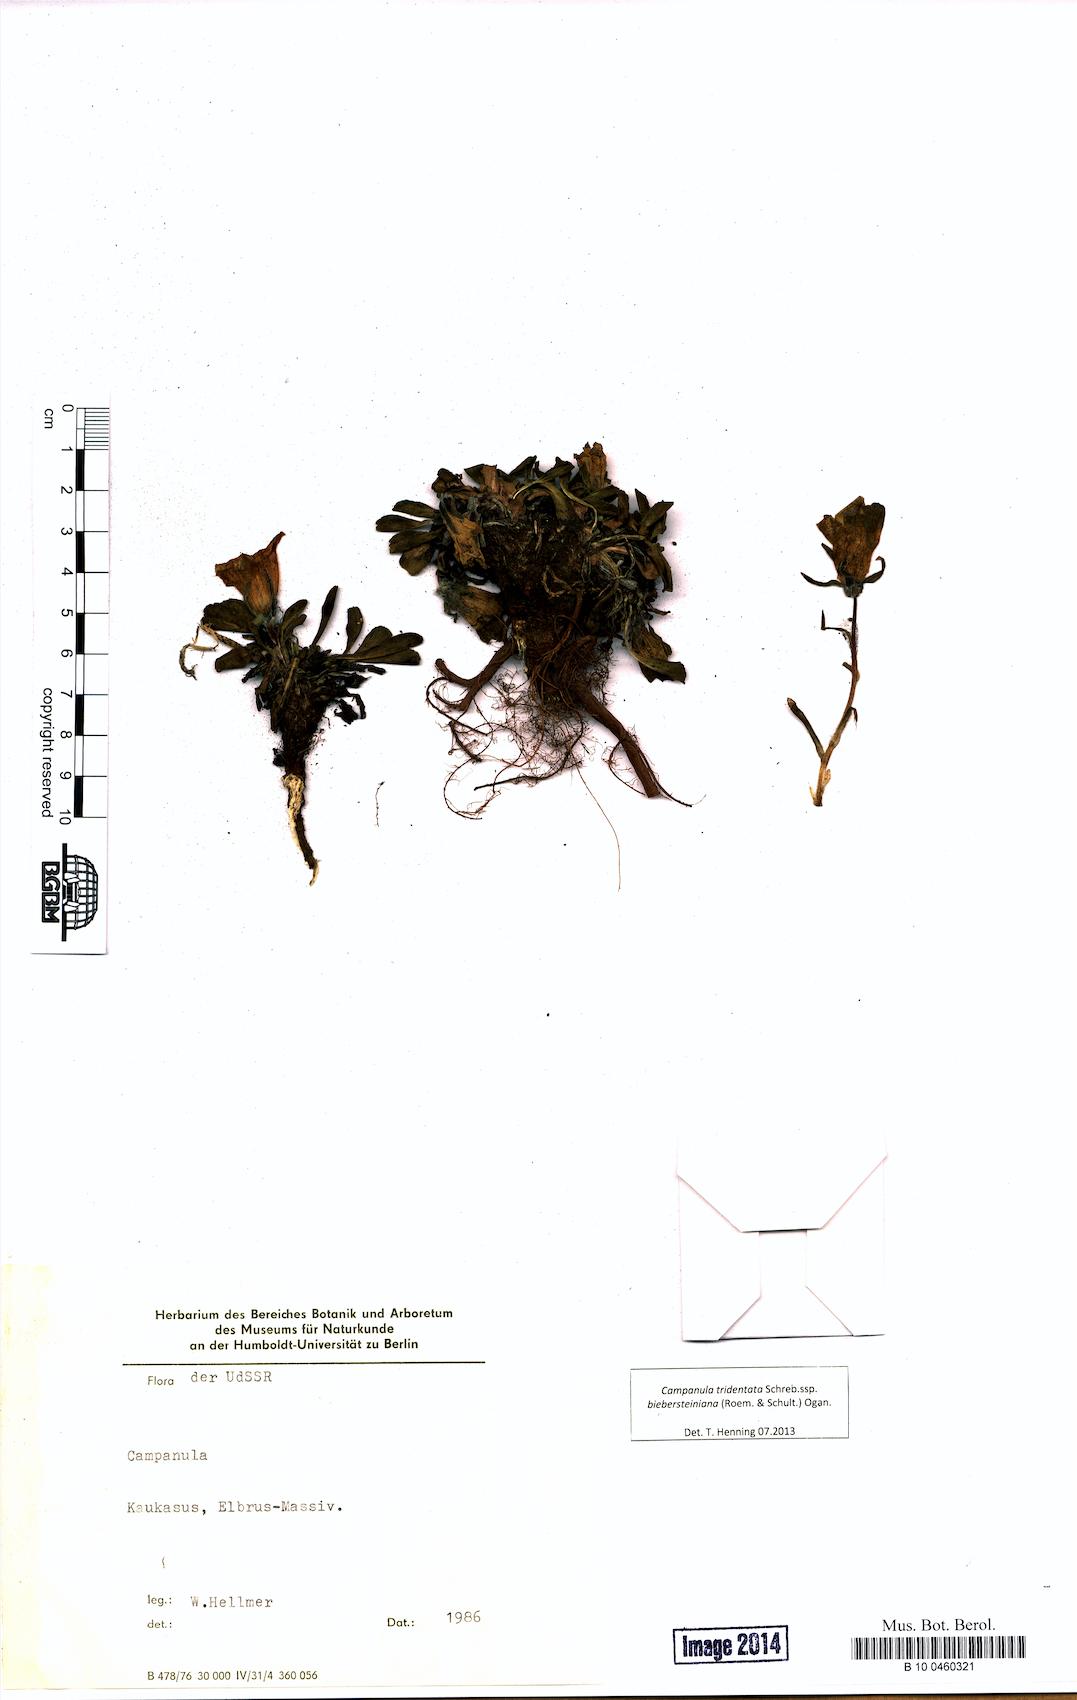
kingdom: Plantae
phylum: Tracheophyta
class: Magnoliopsida
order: Asterales
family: Campanulaceae
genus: Campanula
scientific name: Campanula tridentata
